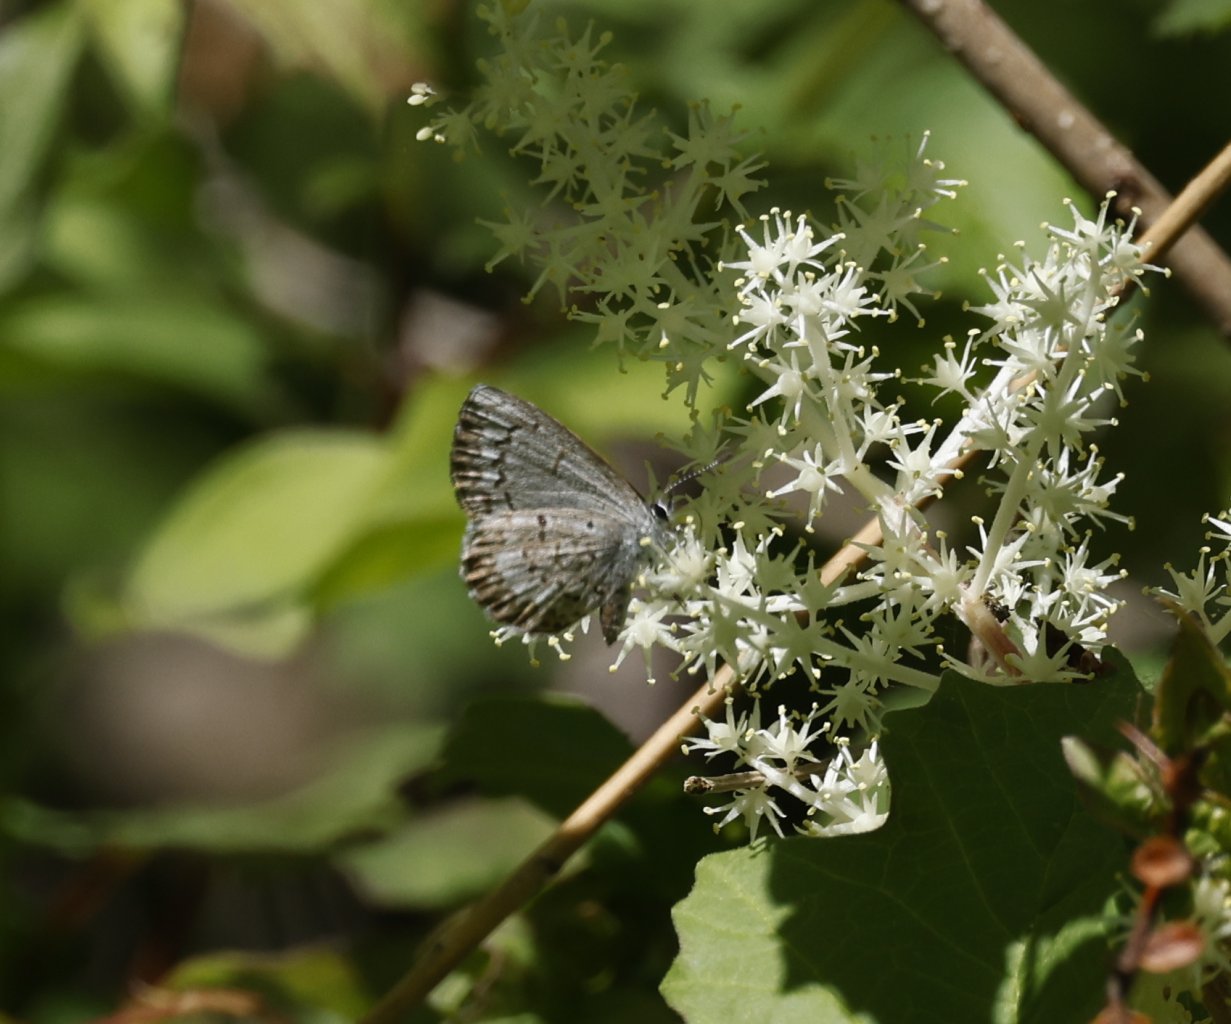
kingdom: Animalia
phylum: Arthropoda
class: Insecta
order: Lepidoptera
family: Lycaenidae
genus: Celastrina
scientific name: Celastrina ladon
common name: Spring Azure
